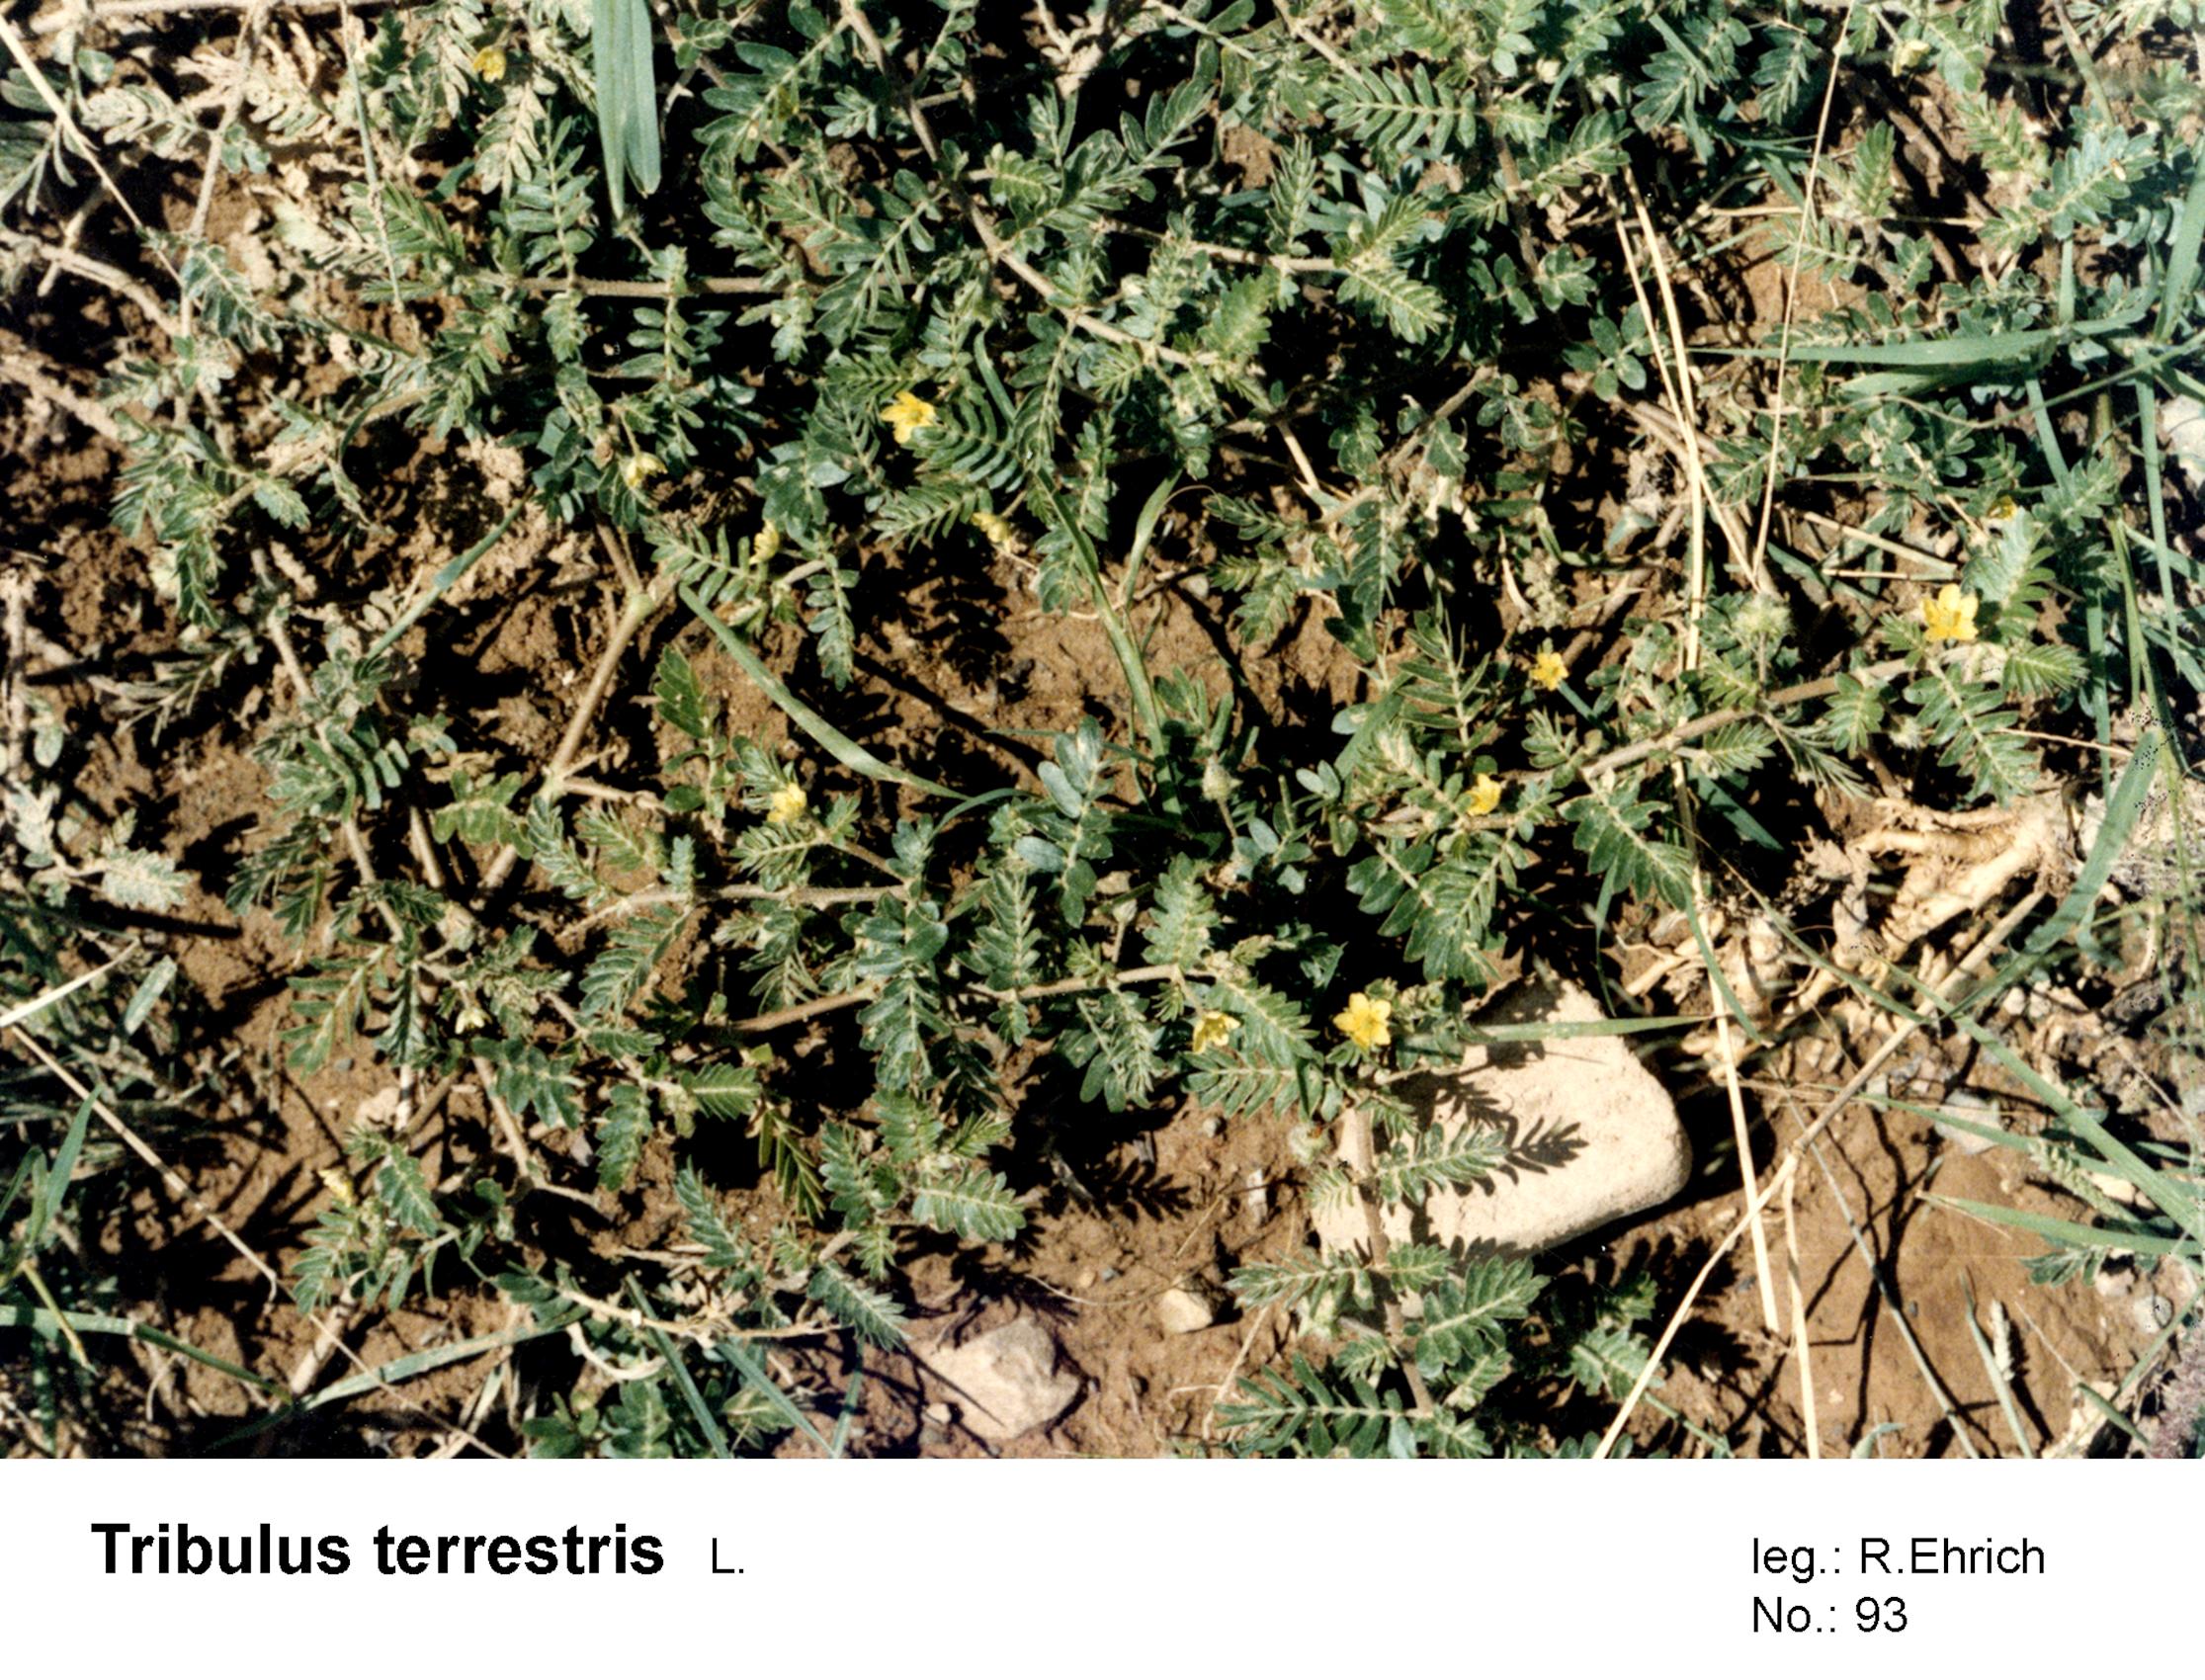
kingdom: Plantae
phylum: Tracheophyta
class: Magnoliopsida
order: Zygophyllales
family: Zygophyllaceae
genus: Tribulus
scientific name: Tribulus terrestris
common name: Puncturevine
